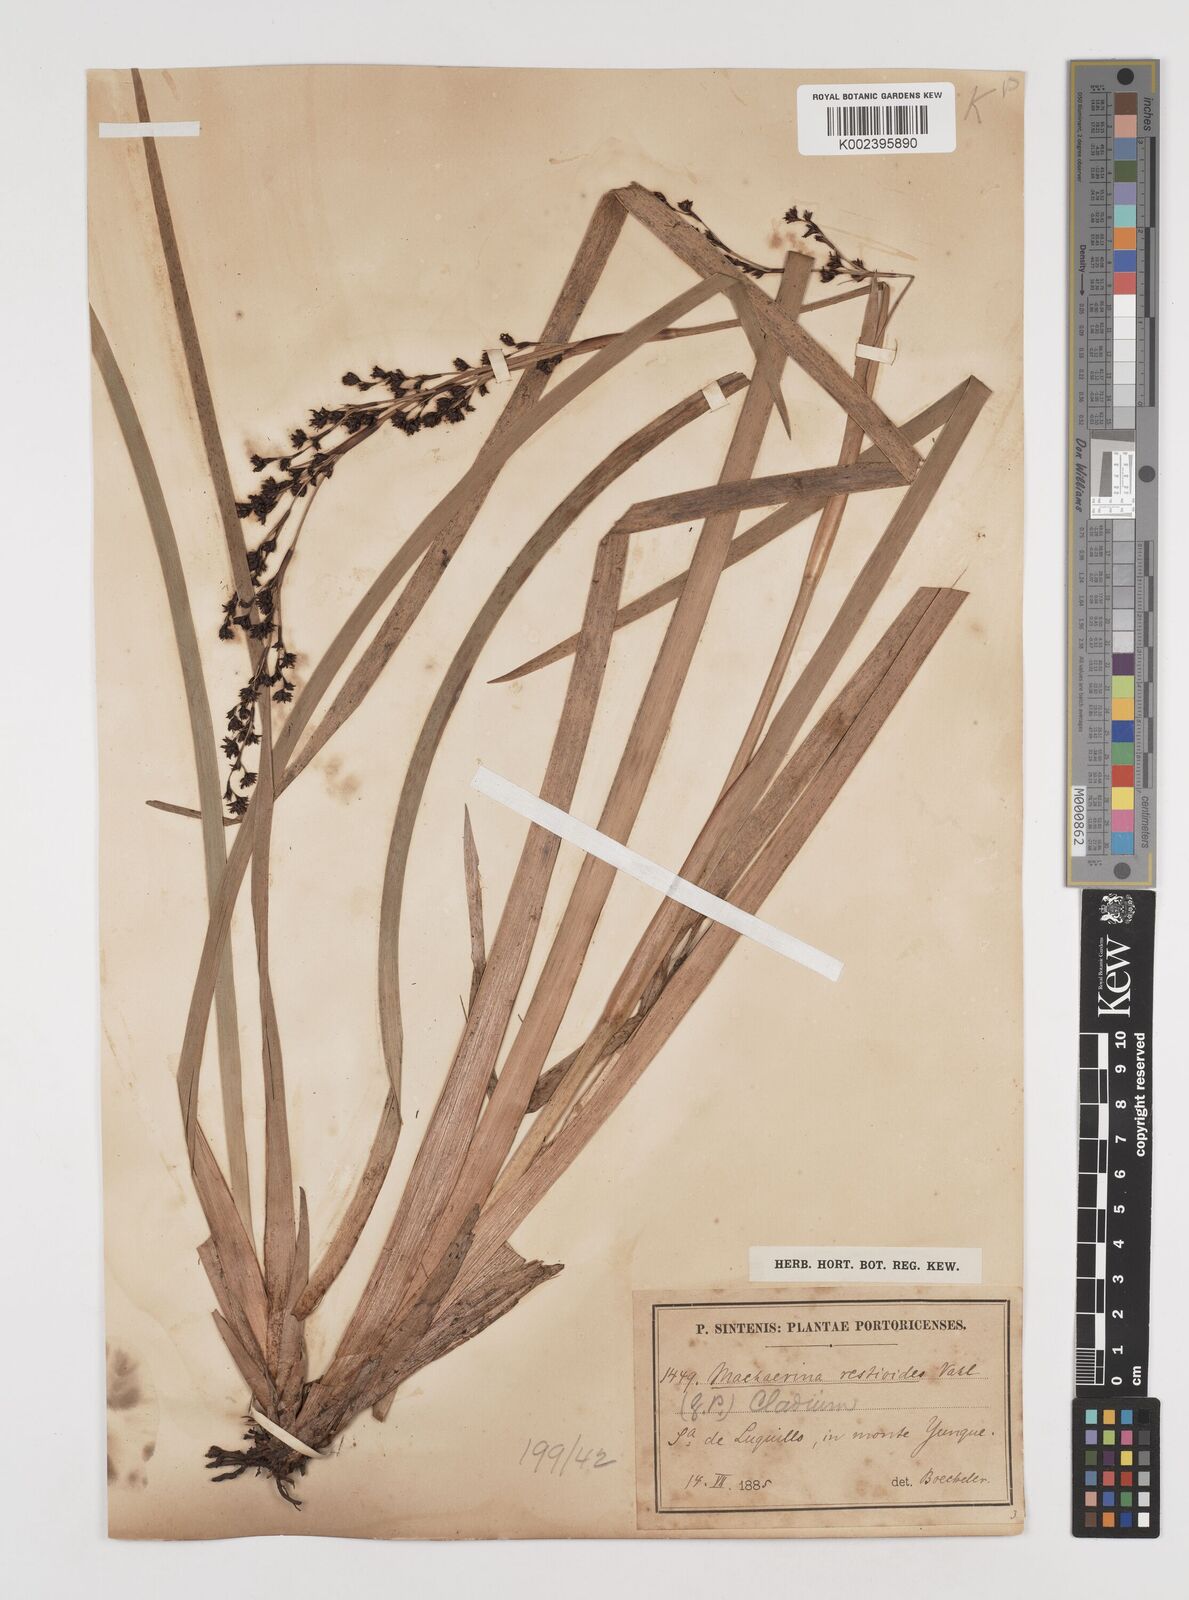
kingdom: Plantae
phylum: Tracheophyta
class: Liliopsida
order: Poales
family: Cyperaceae
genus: Machaerina
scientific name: Machaerina restioides
